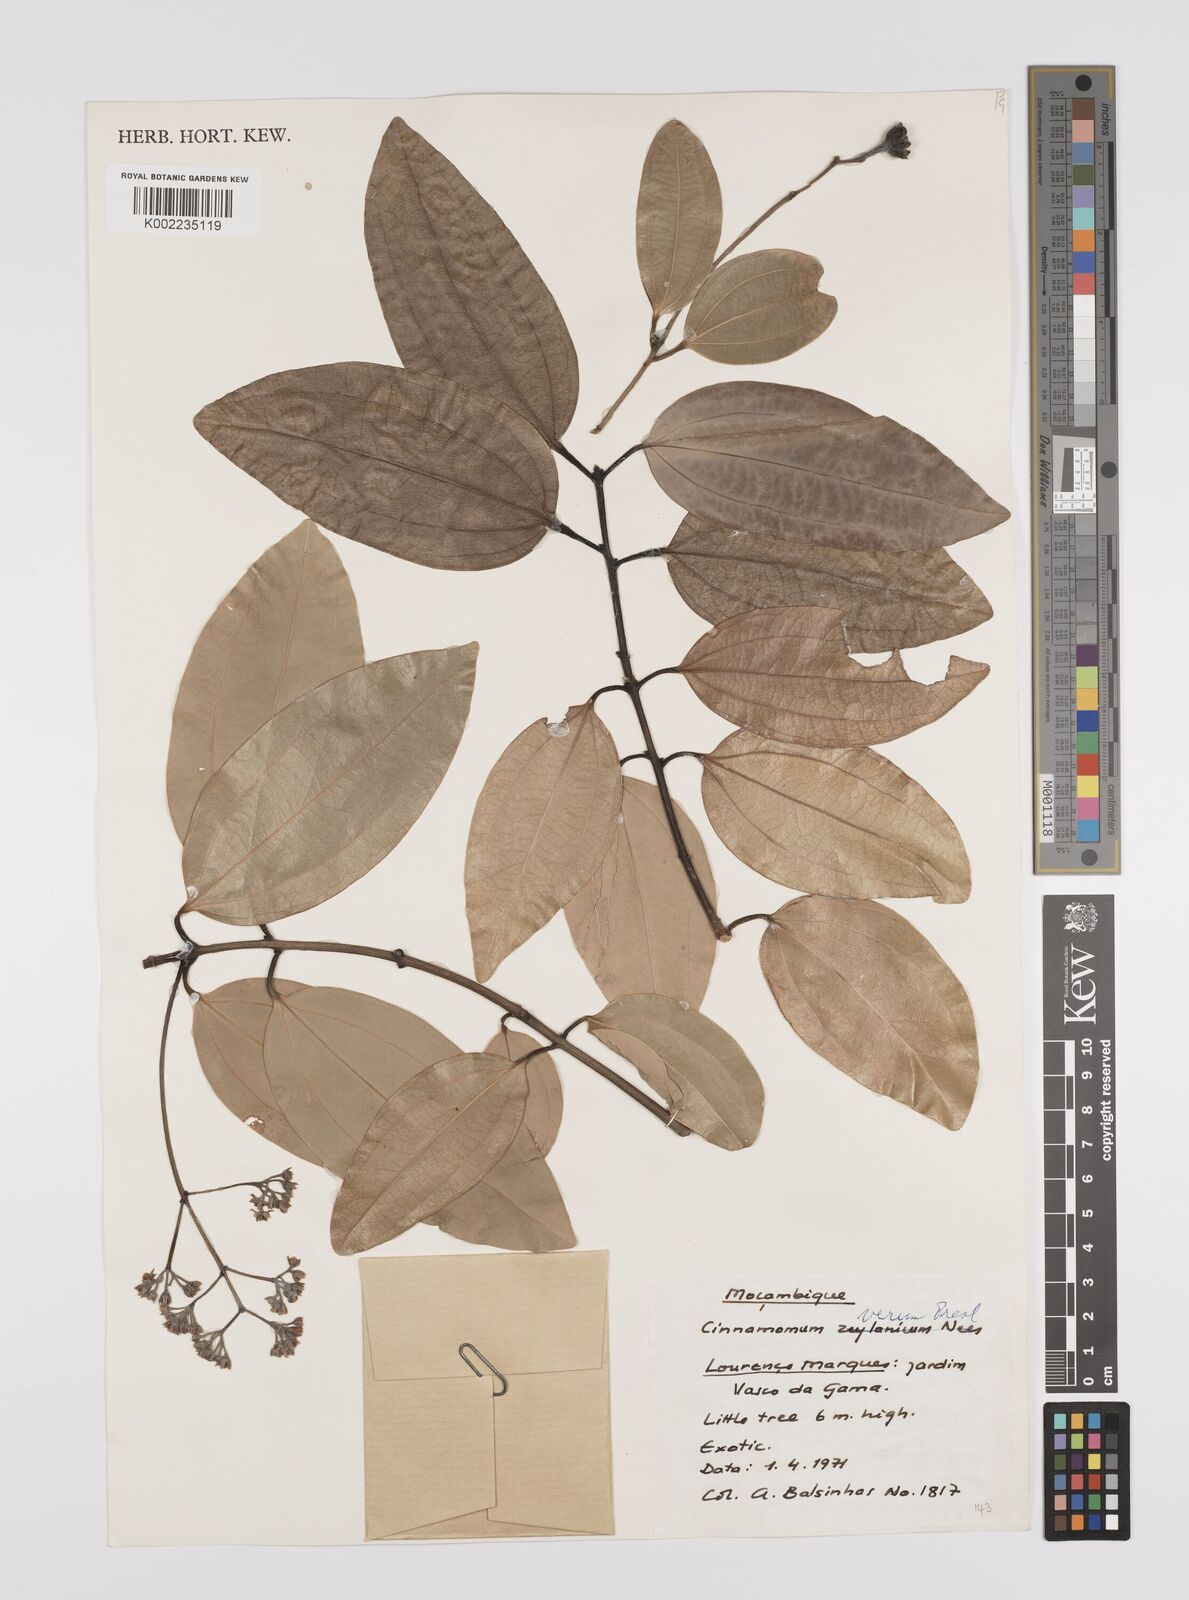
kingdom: Plantae
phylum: Tracheophyta
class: Magnoliopsida
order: Laurales
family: Lauraceae
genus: Cinnamomum
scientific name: Cinnamomum verum
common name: Cinnamon
